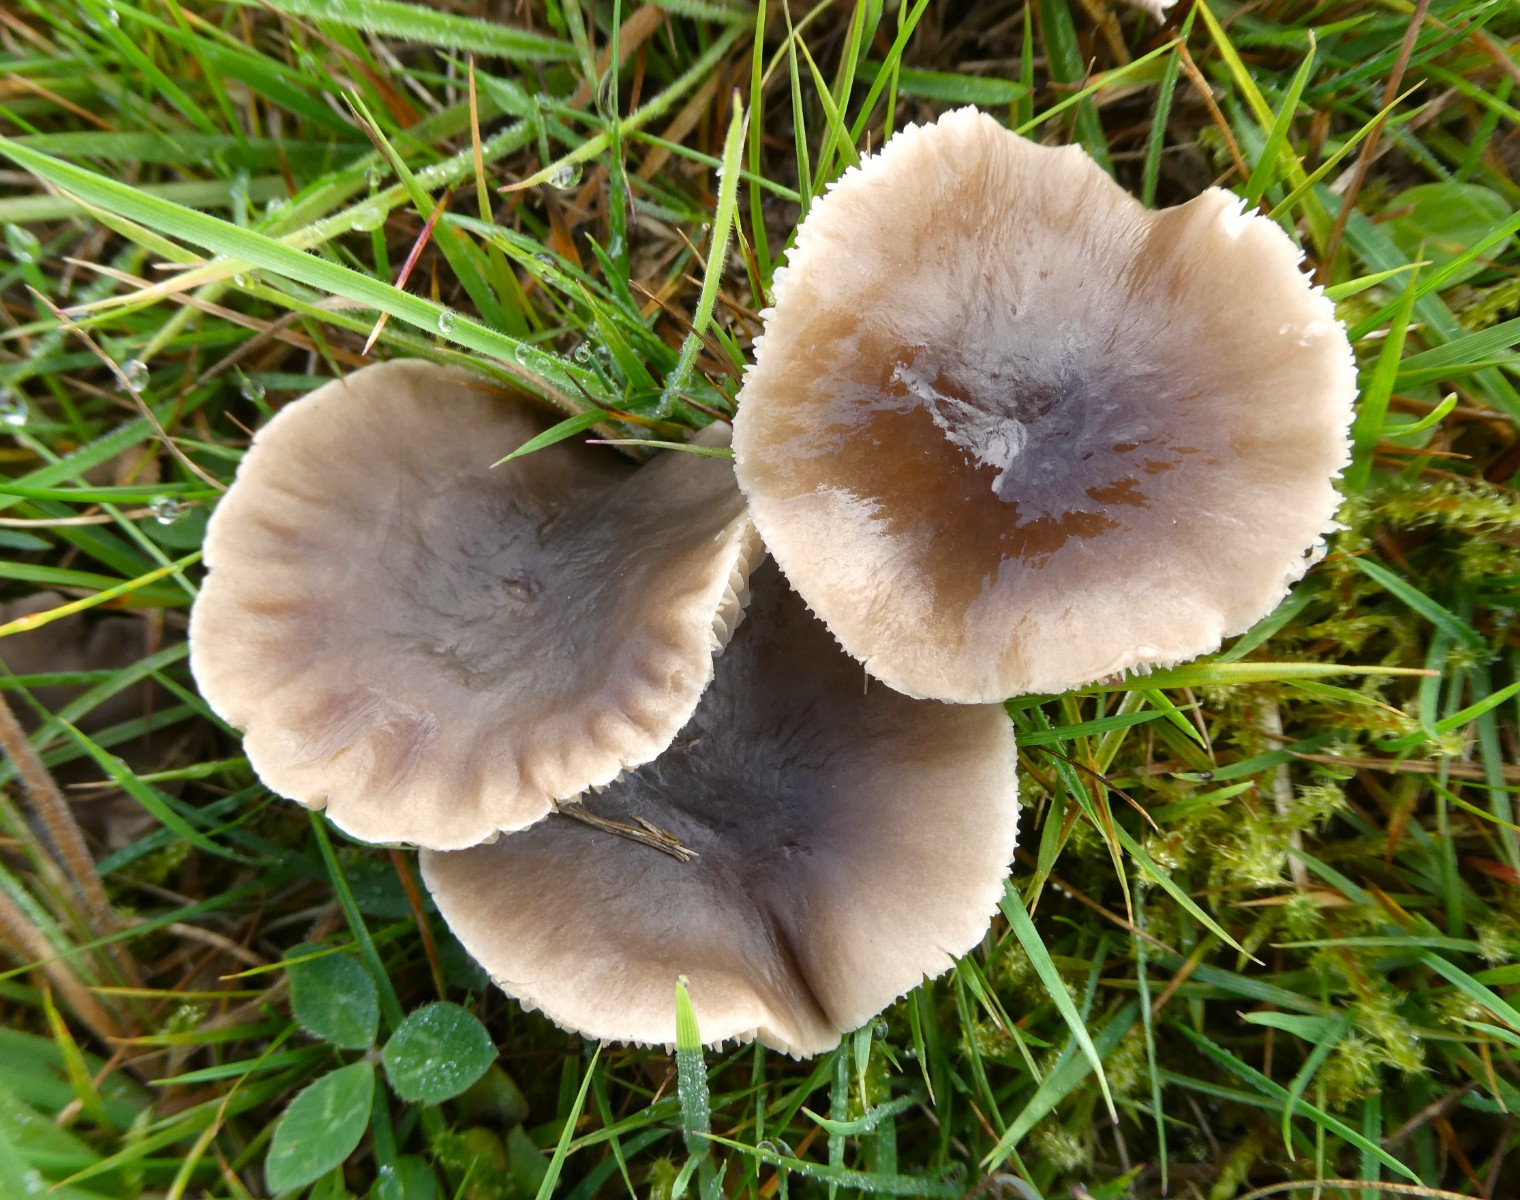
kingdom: Fungi
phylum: Basidiomycota
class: Agaricomycetes
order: Agaricales
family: Tricholomataceae
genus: Dermoloma
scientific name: Dermoloma
